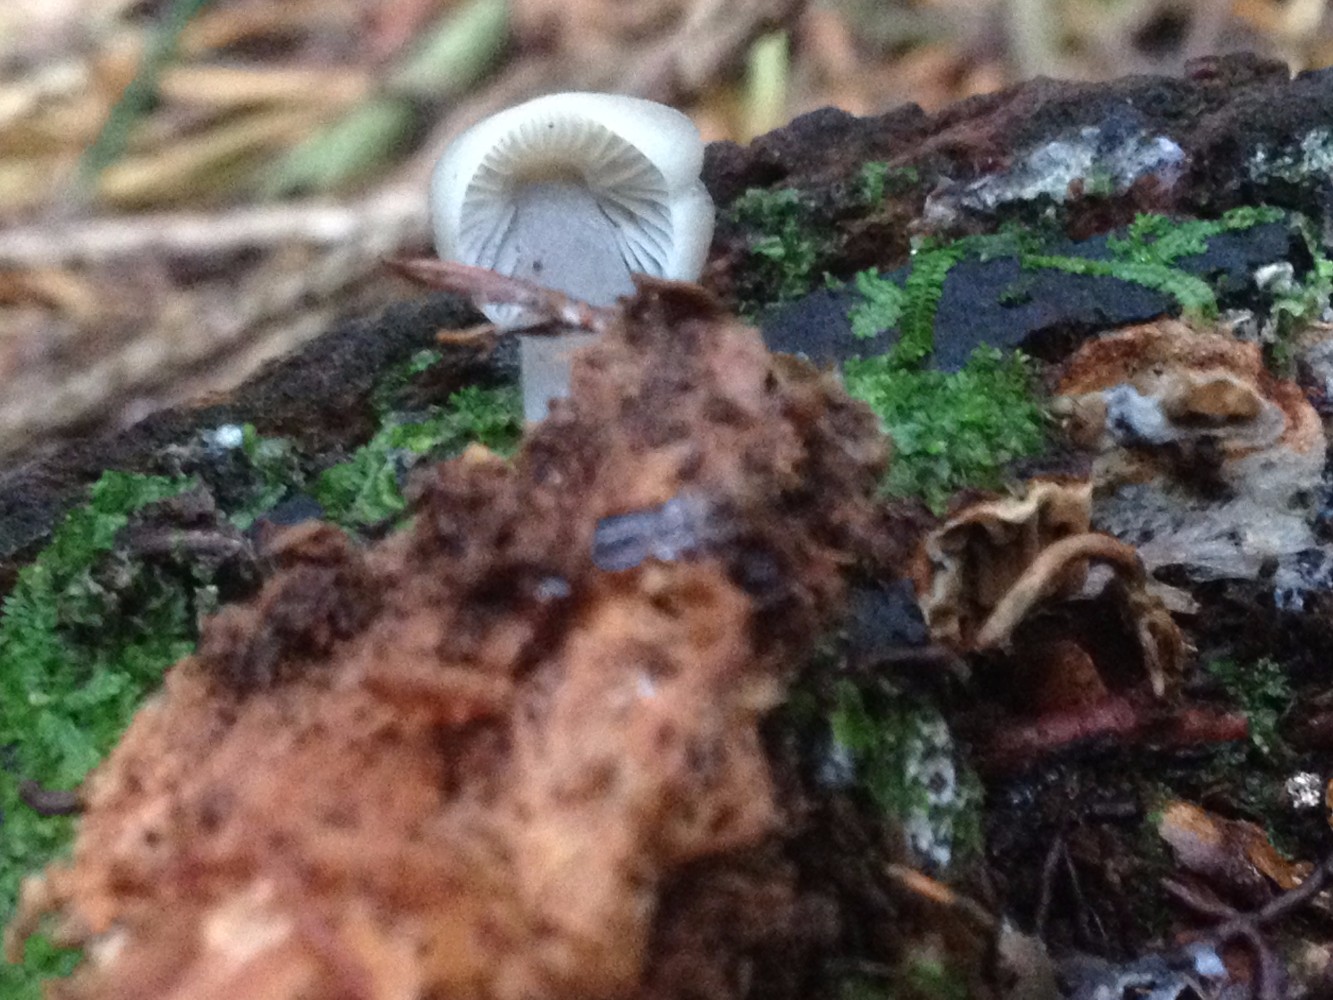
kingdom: Fungi
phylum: Basidiomycota
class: Agaricomycetes
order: Agaricales
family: Mycenaceae
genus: Mycena
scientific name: Mycena
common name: huesvamp
